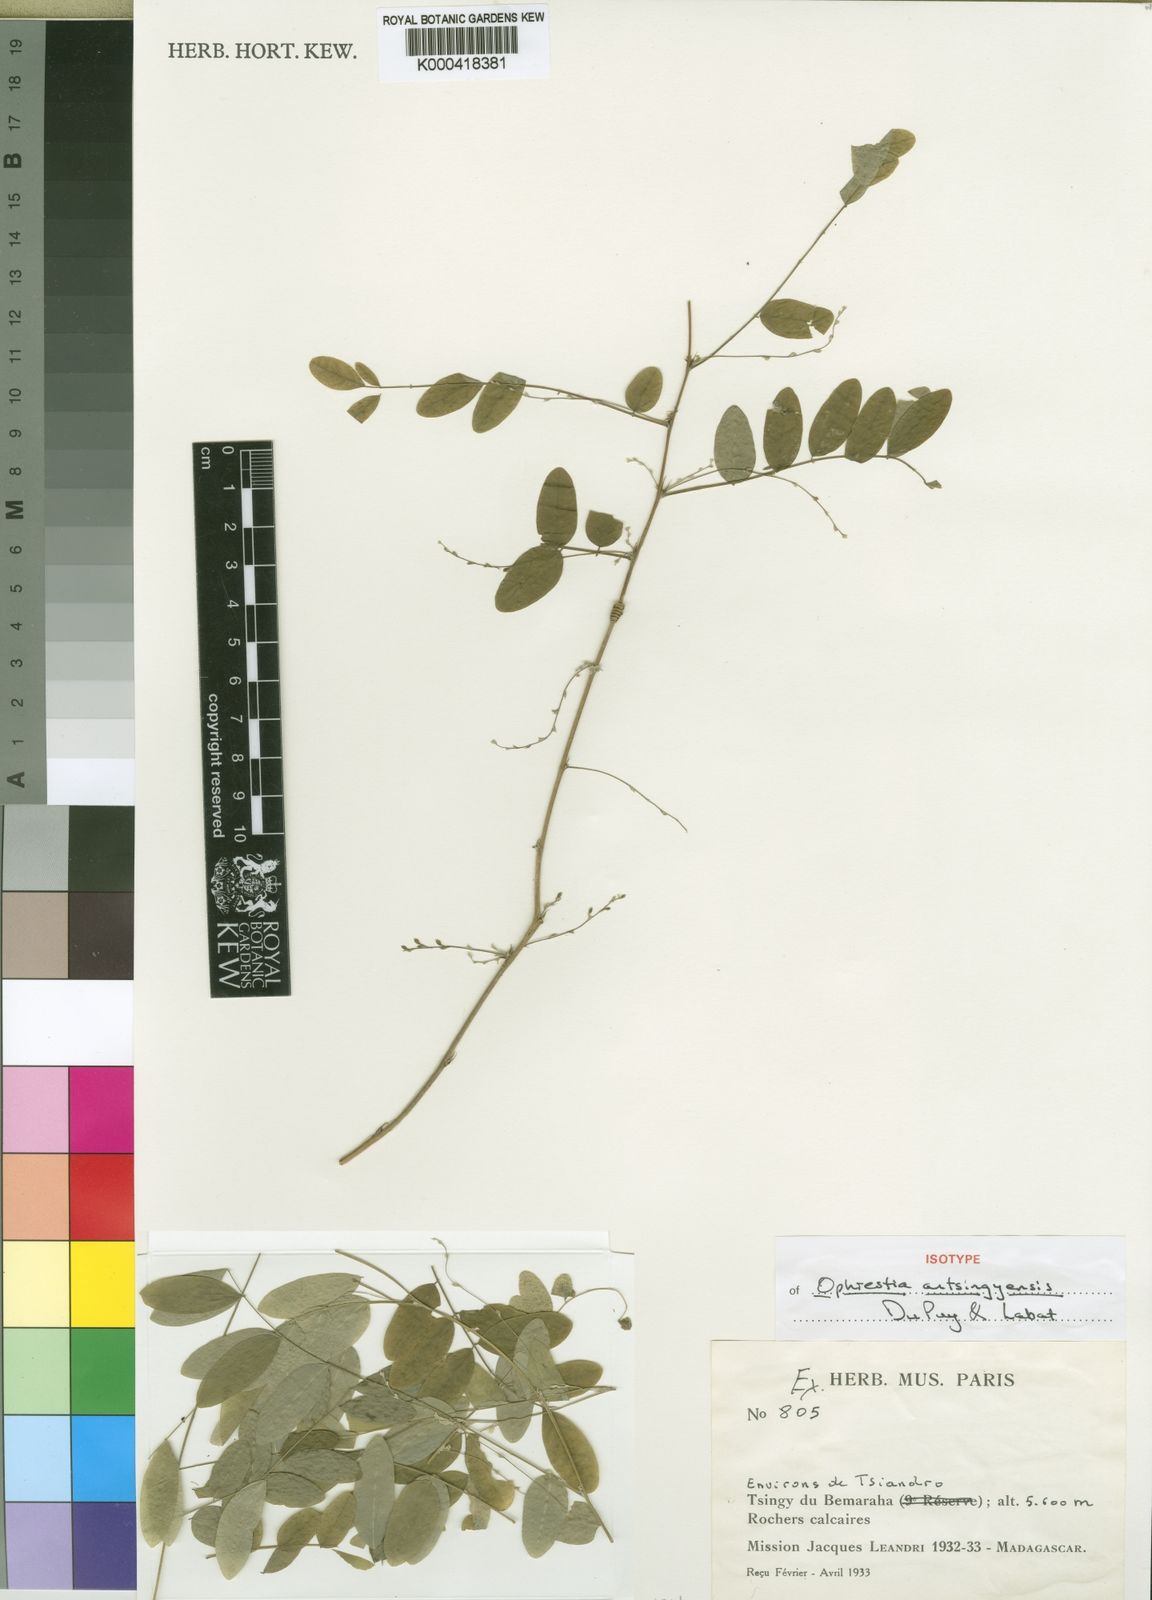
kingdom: Plantae
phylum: Tracheophyta
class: Magnoliopsida
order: Fabales
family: Fabaceae
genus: Ophrestia
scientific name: Ophrestia antsingyensis
